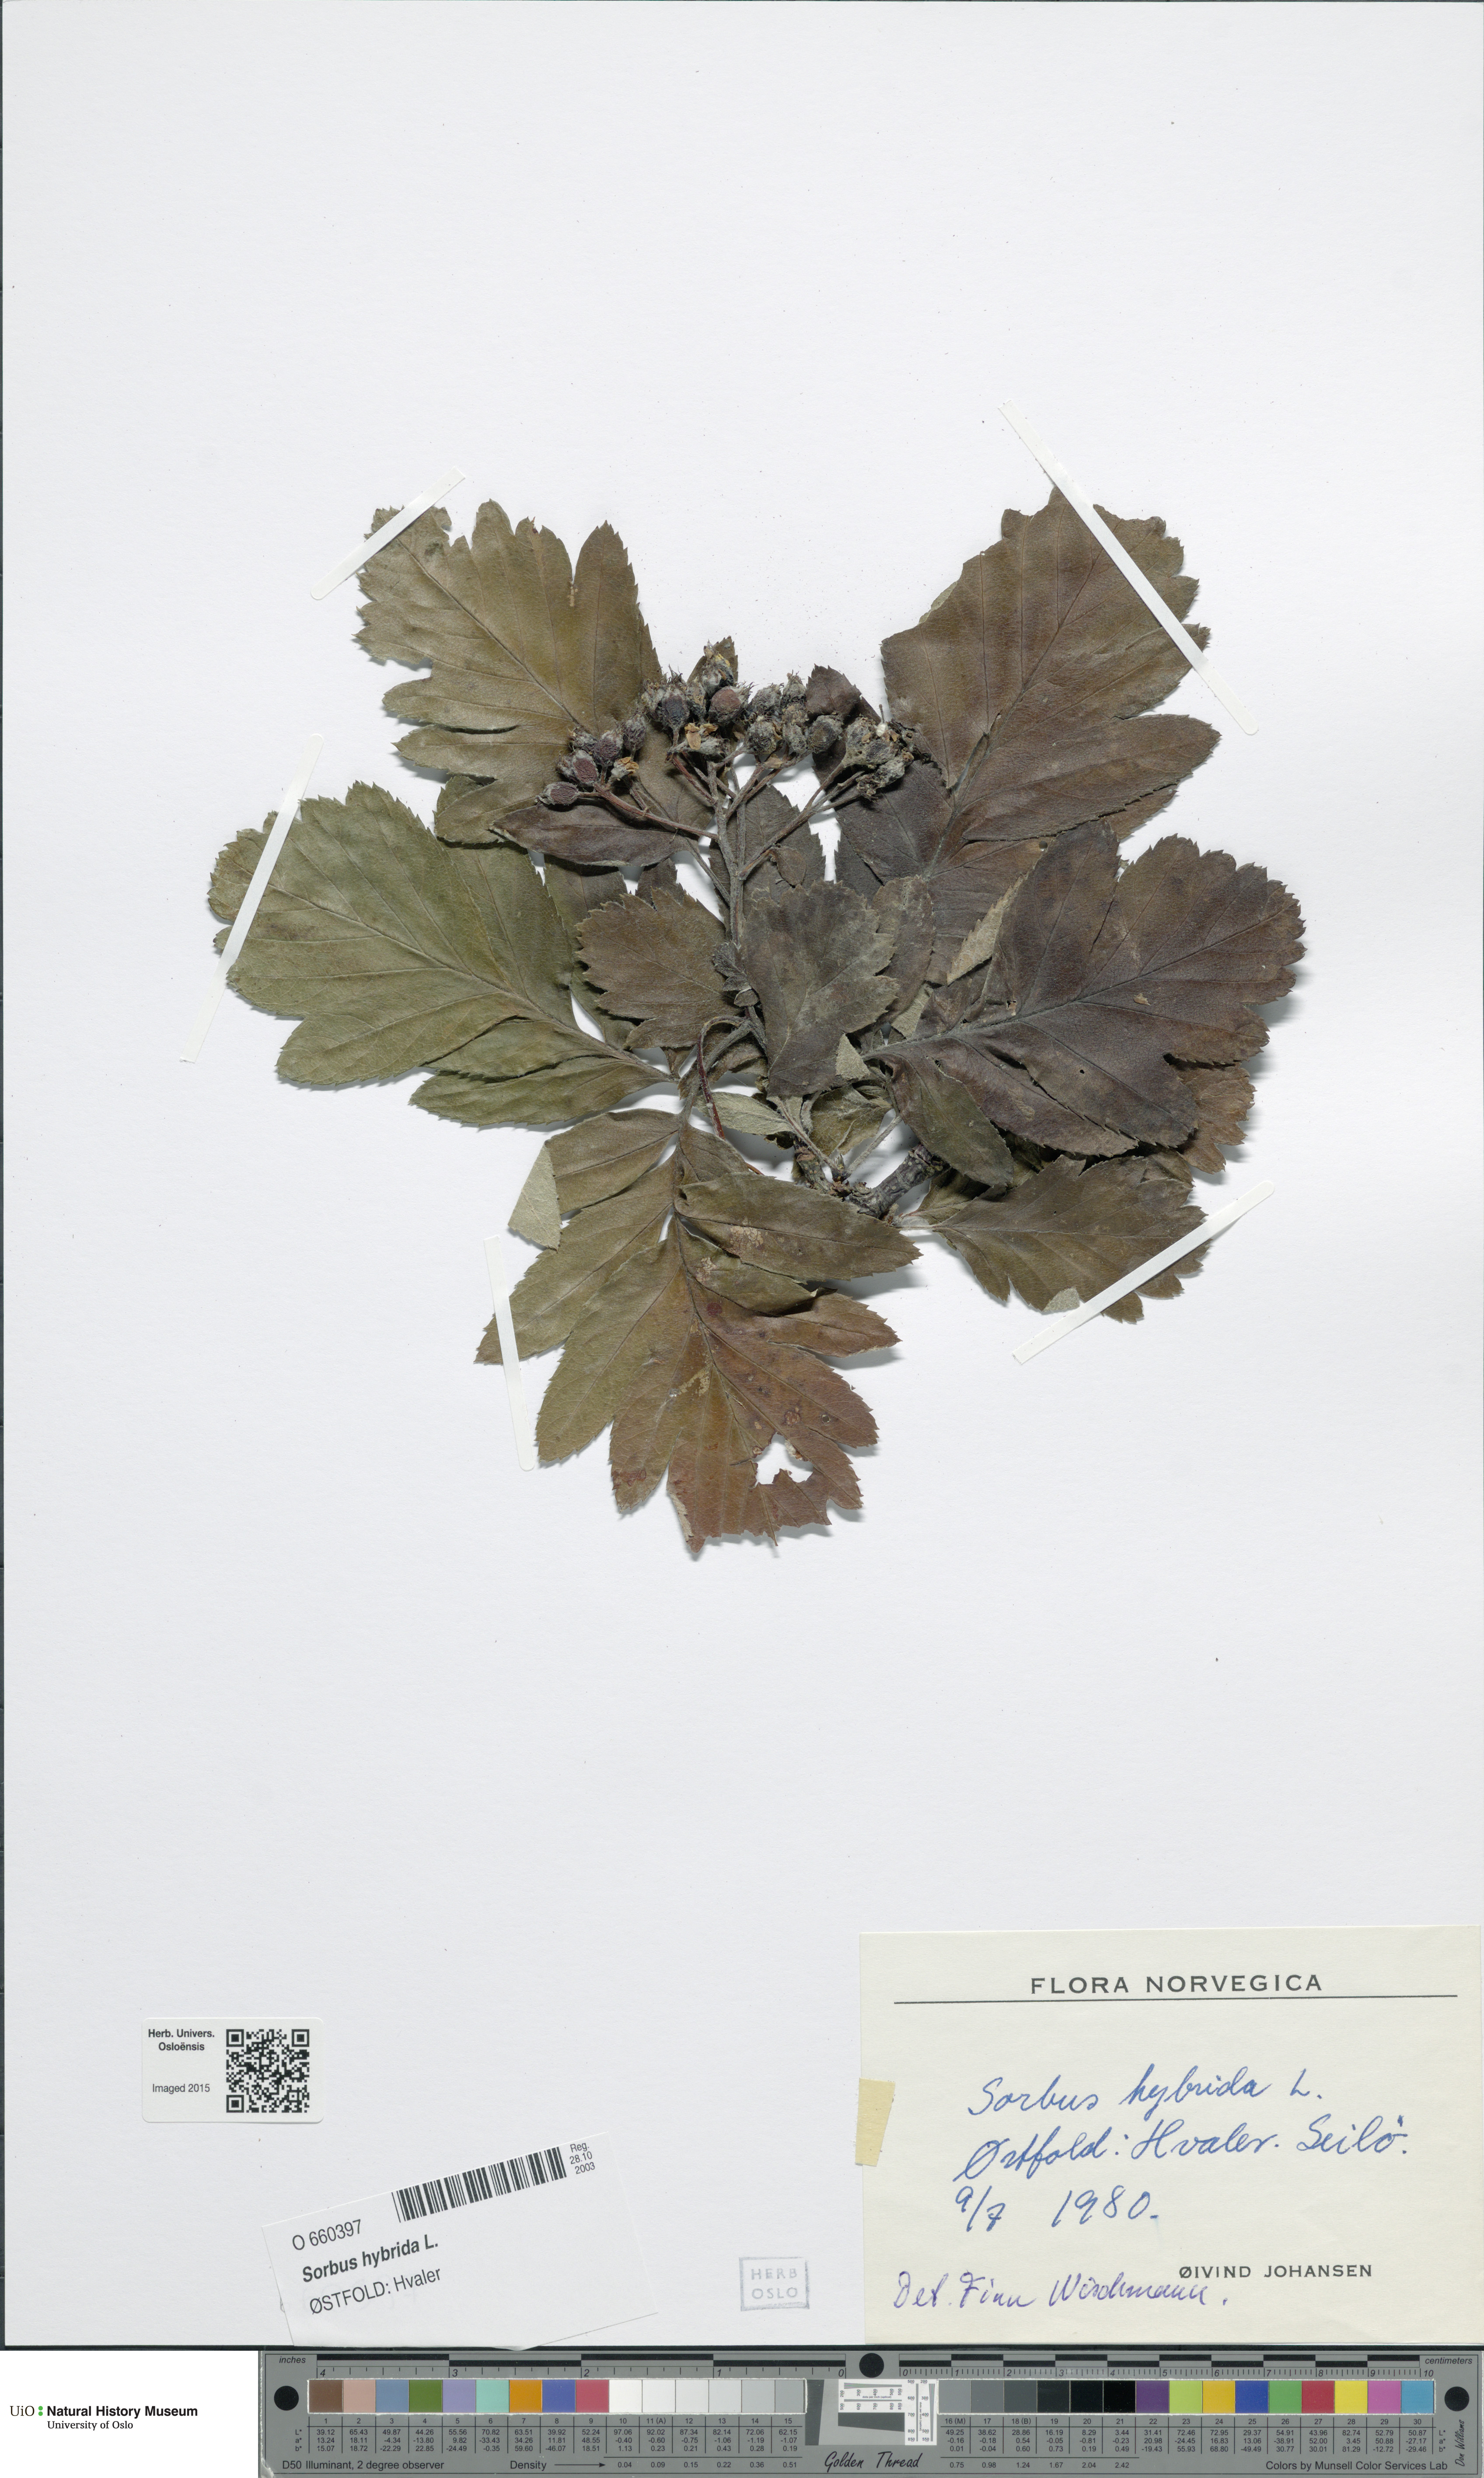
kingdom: Plantae
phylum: Tracheophyta
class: Magnoliopsida
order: Rosales
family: Rosaceae
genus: Hedlundia
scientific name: Hedlundia hybrida
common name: Swedish service-tree
